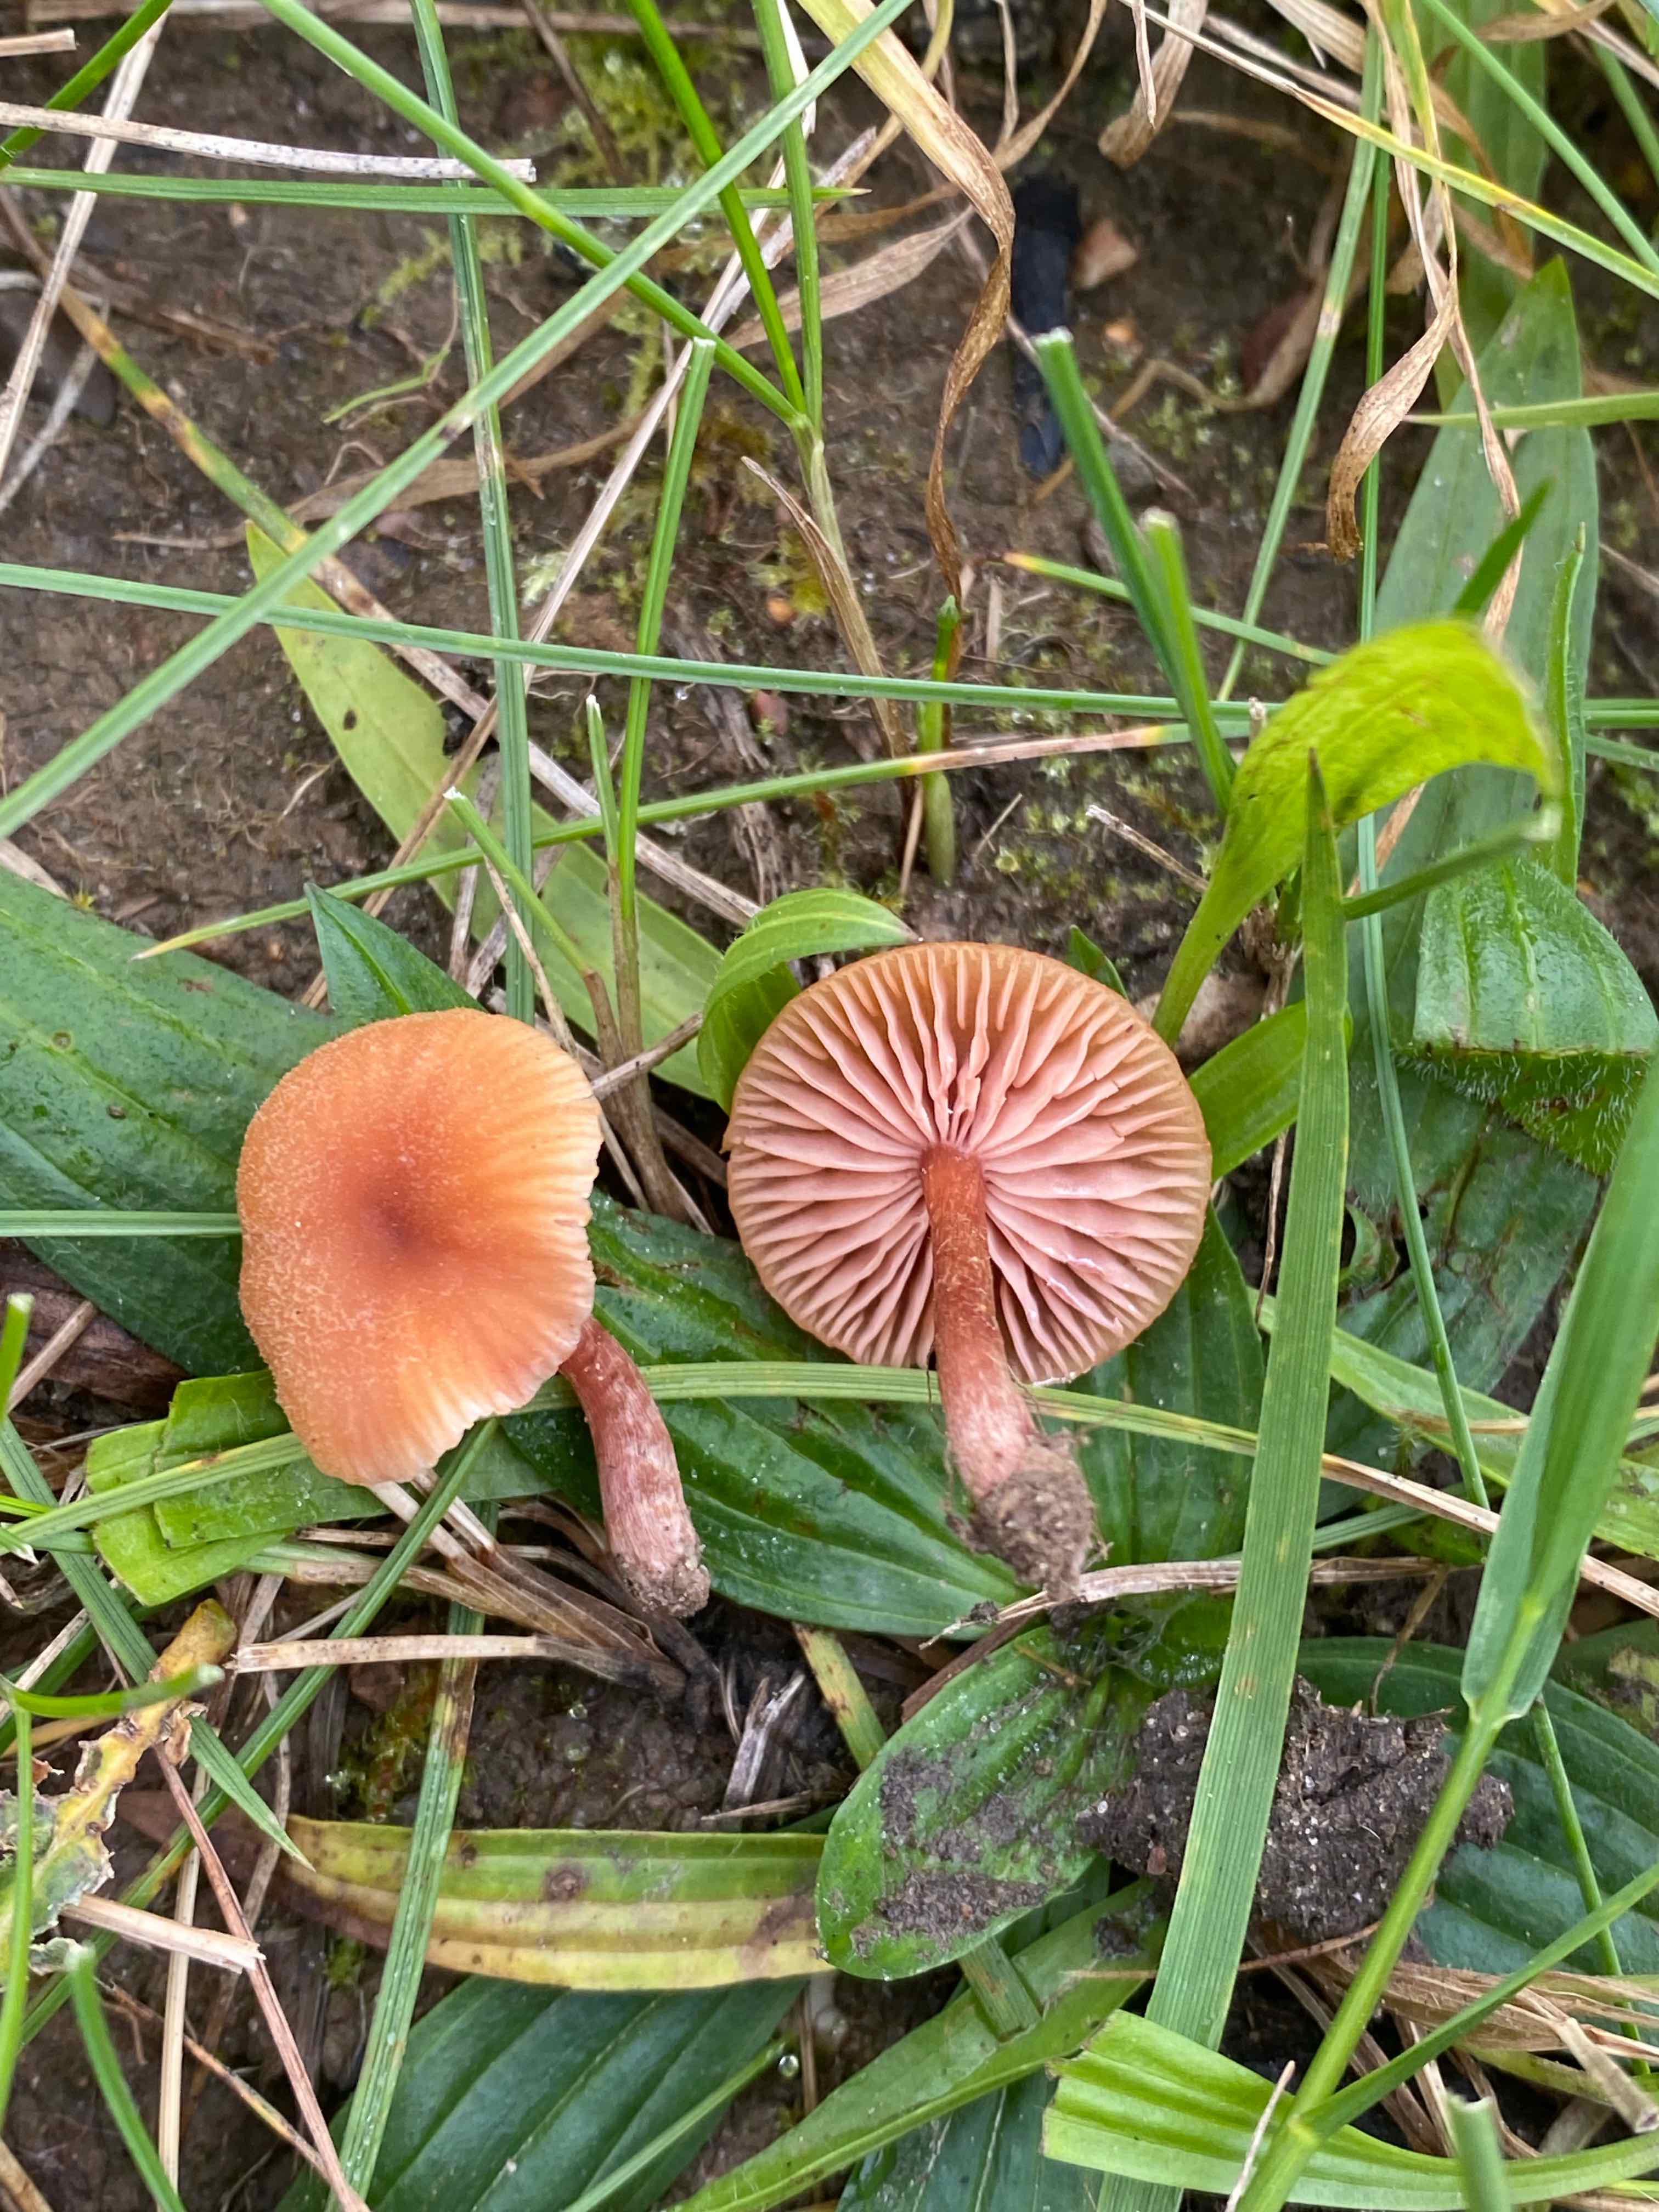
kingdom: Fungi
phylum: Basidiomycota
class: Agaricomycetes
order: Agaricales
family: Hydnangiaceae
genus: Laccaria
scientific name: Laccaria laccata
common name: rød ametysthat
